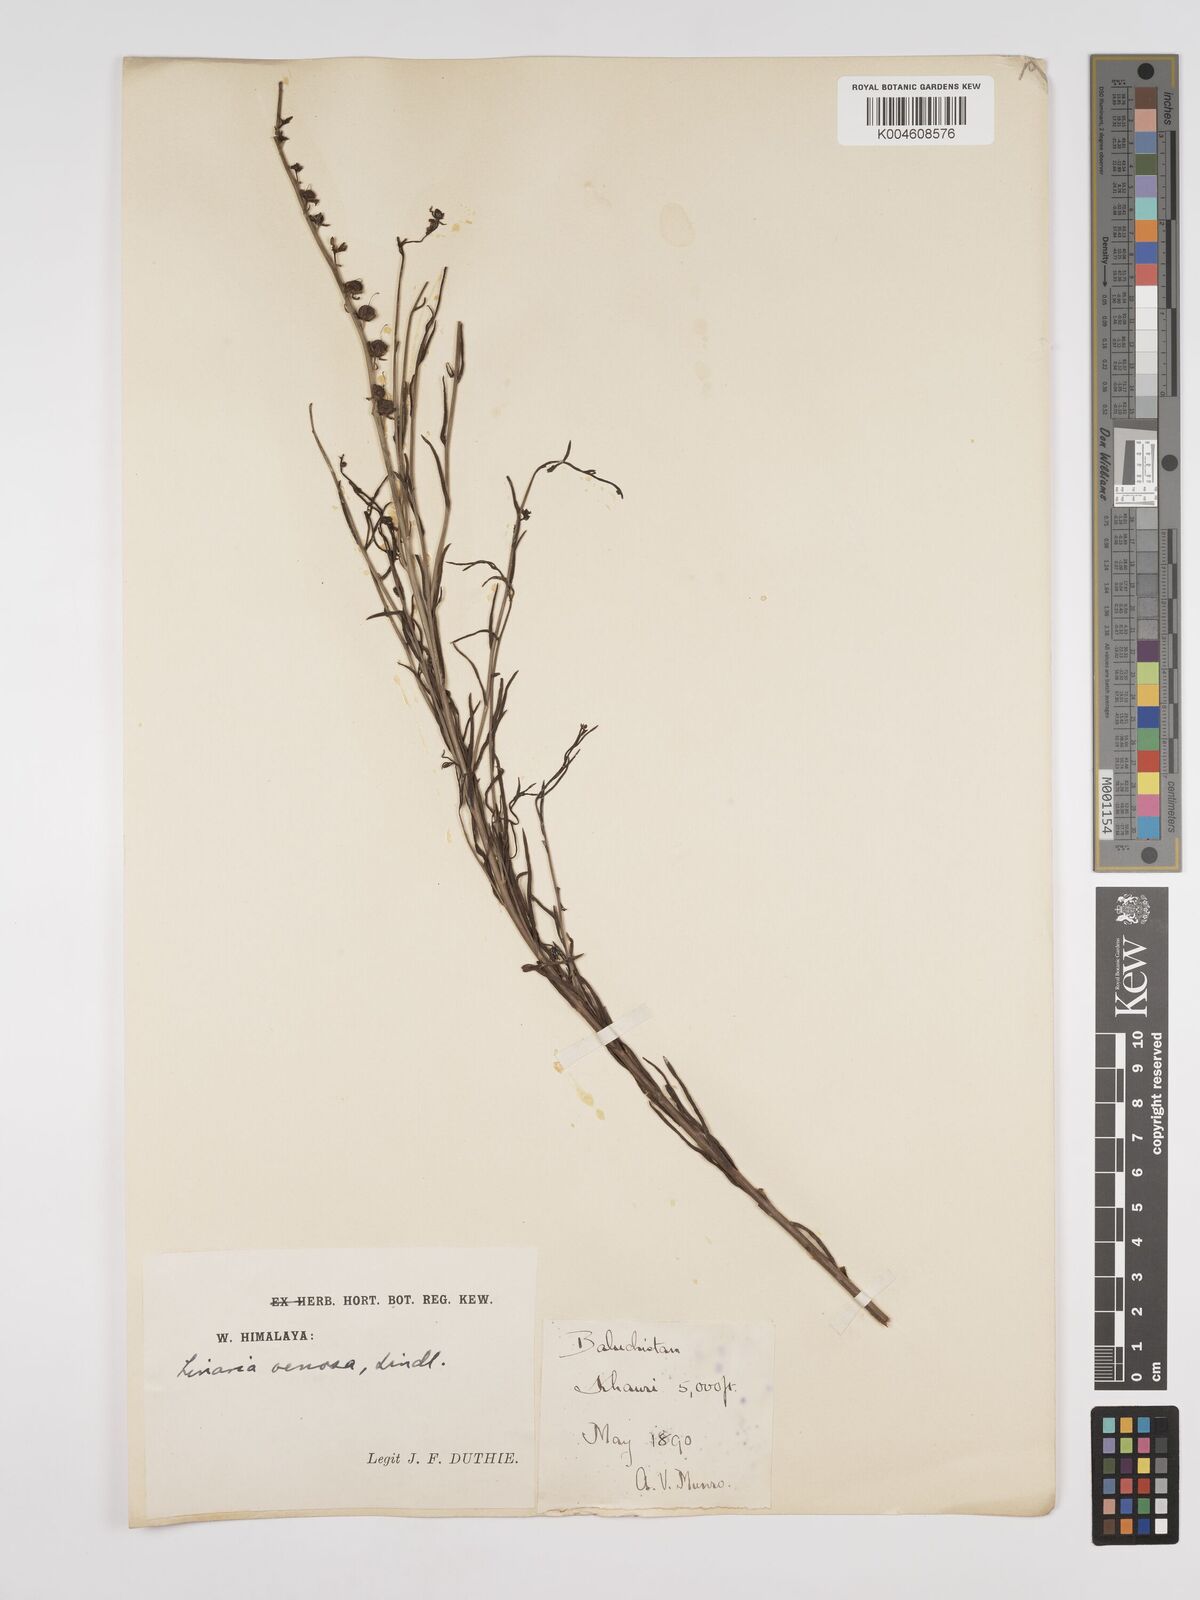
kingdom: Plantae
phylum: Tracheophyta
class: Magnoliopsida
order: Lamiales
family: Plantaginaceae
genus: Kickxia
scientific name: Kickxia
